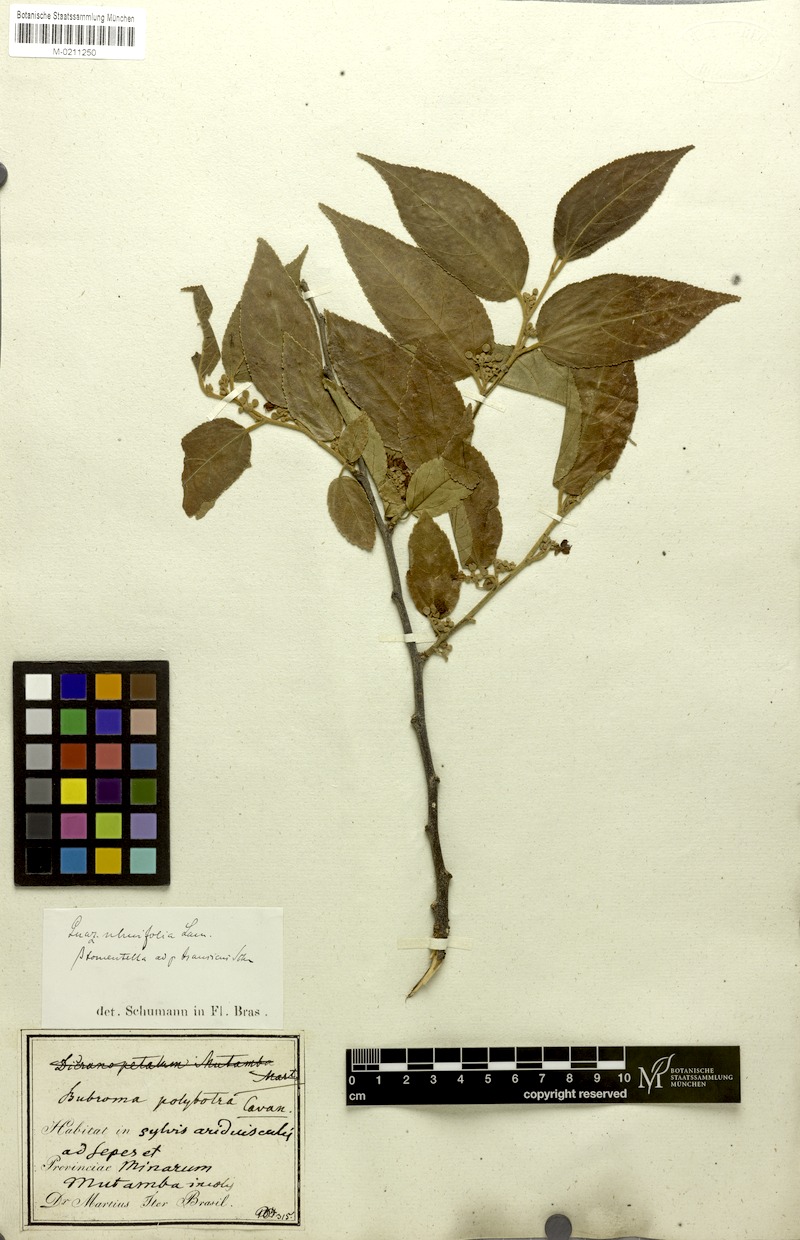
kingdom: Plantae
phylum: Tracheophyta
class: Magnoliopsida
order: Malvales
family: Malvaceae
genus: Guazuma
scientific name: Guazuma ulmifolia
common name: Bastard-cedar
